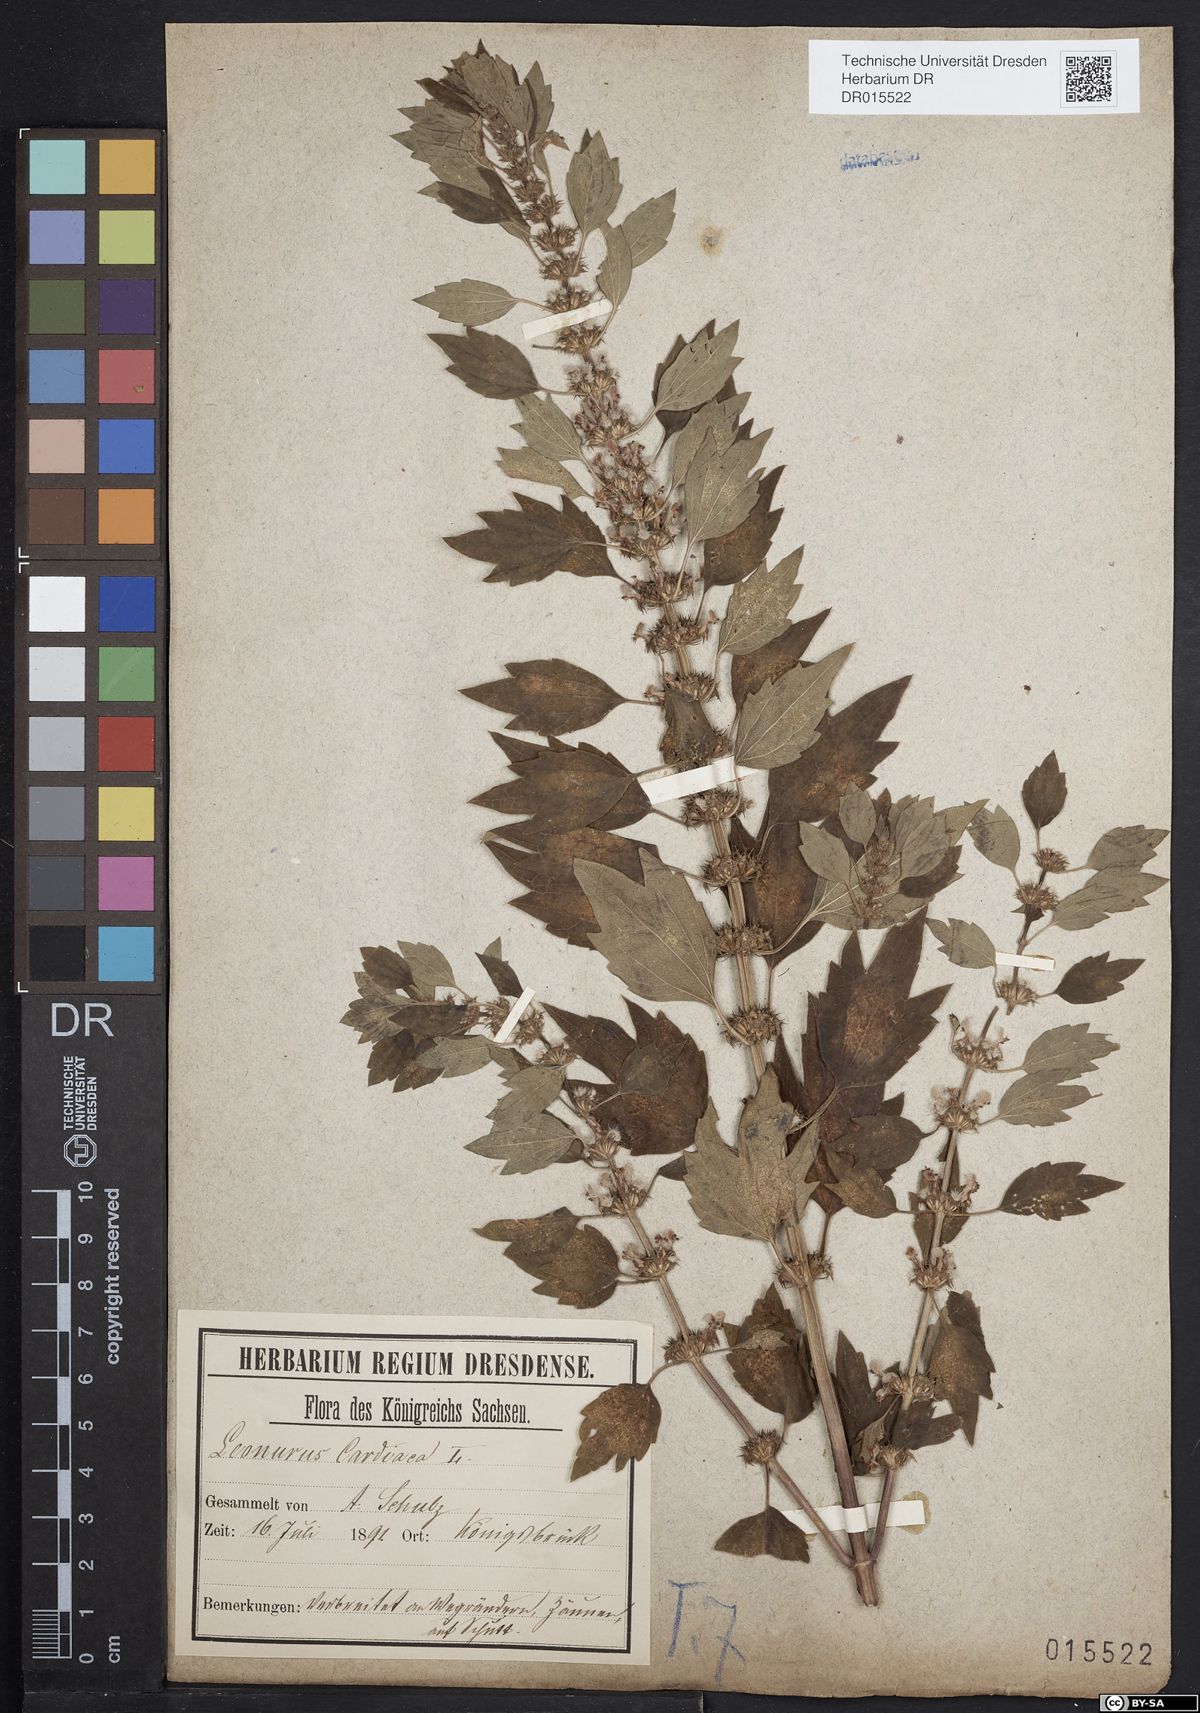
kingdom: Plantae
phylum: Tracheophyta
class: Magnoliopsida
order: Lamiales
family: Lamiaceae
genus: Leonurus
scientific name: Leonurus cardiaca
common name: Motherwort
